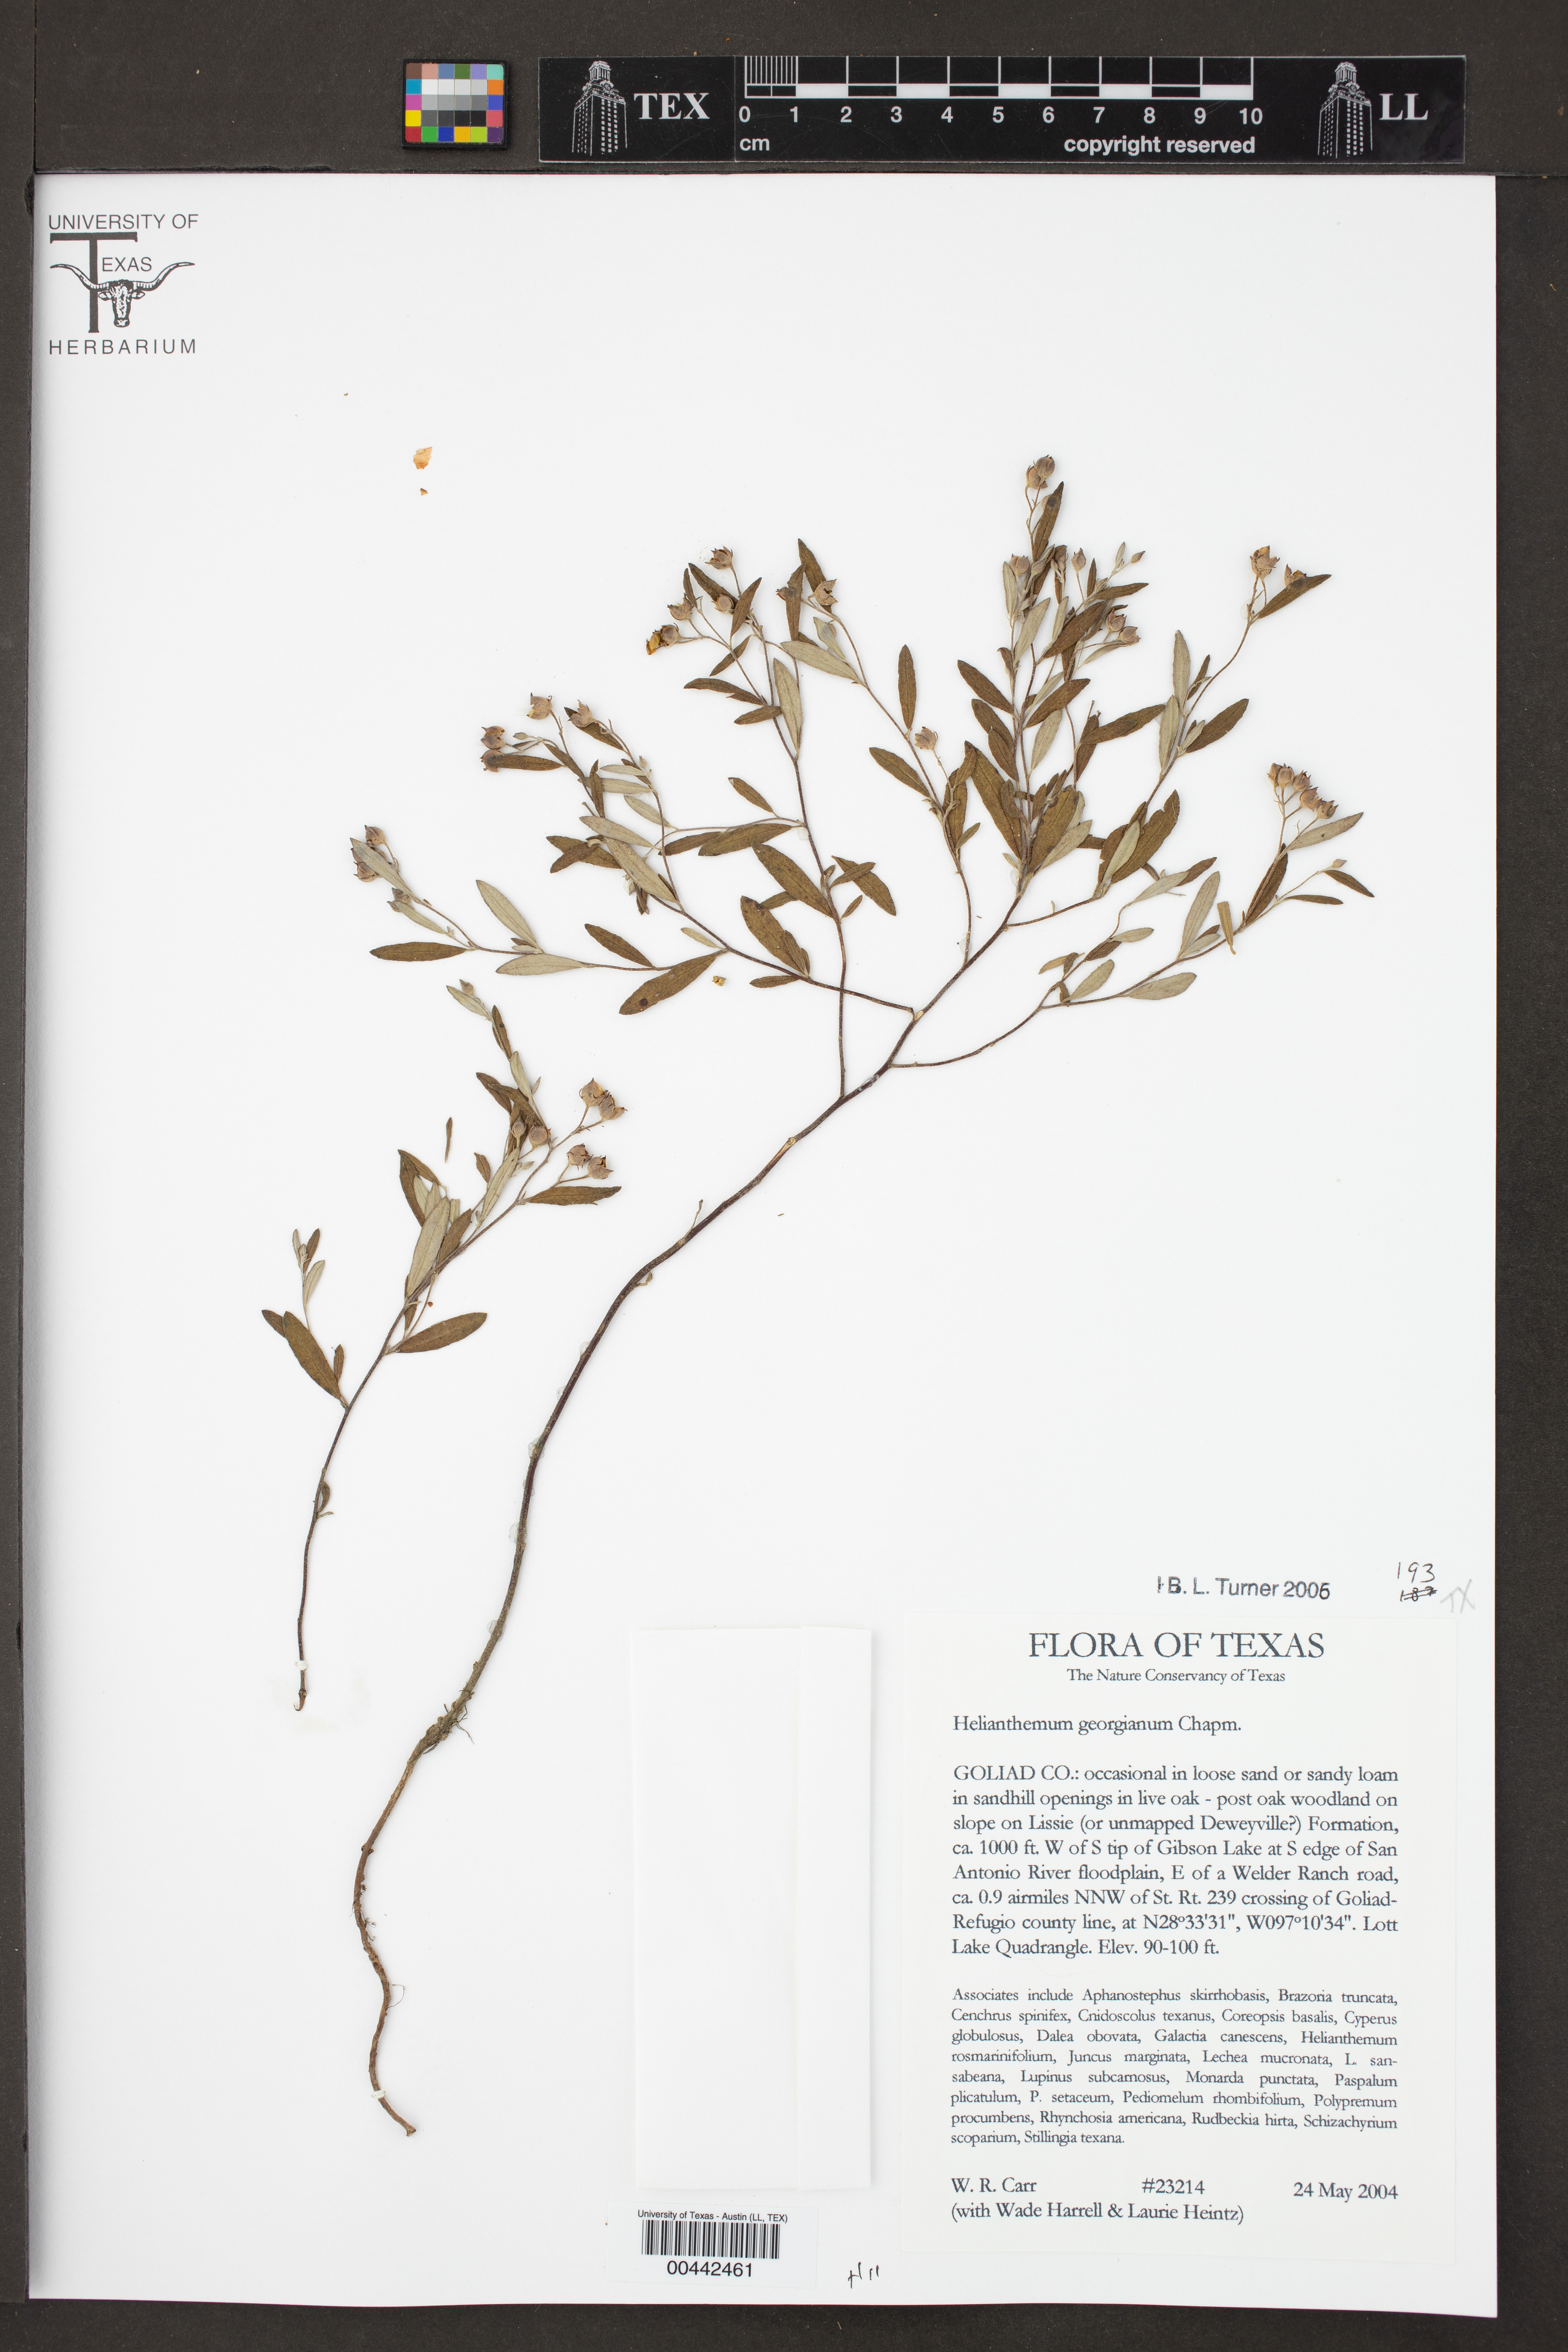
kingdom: Plantae
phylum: Tracheophyta
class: Magnoliopsida
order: Malvales
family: Cistaceae
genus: Crocanthemum
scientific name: Crocanthemum georgianum
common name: Georgia frostweed
